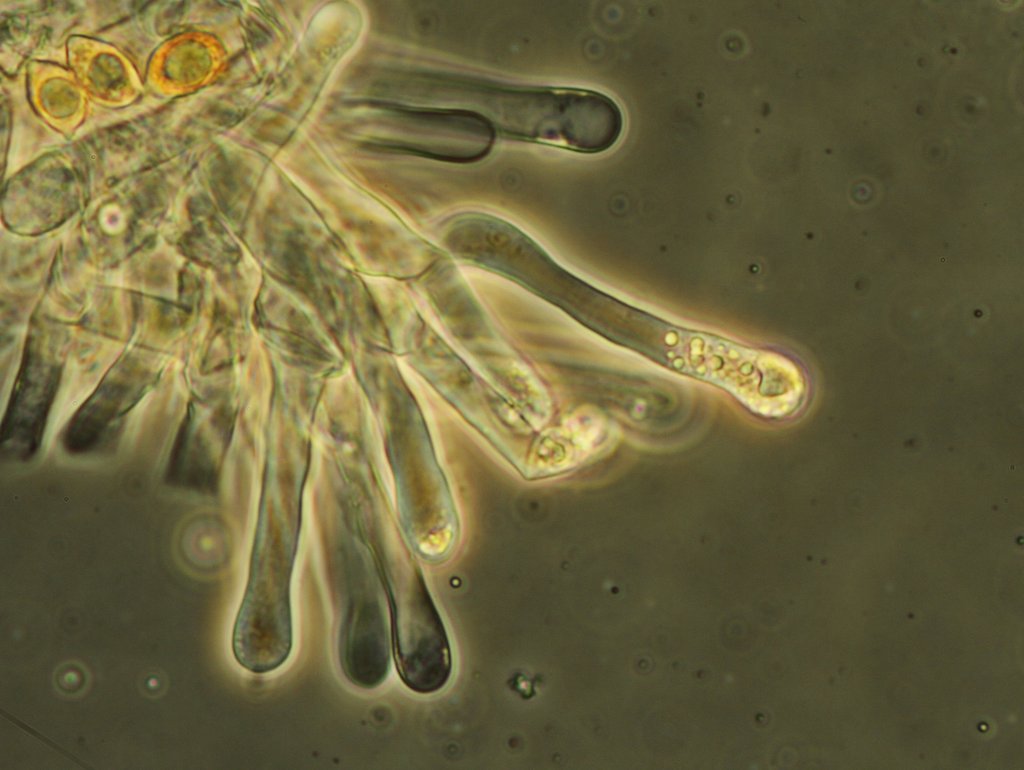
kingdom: Fungi
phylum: Basidiomycota
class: Agaricomycetes
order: Agaricales
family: Hymenogastraceae
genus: Hebeloma
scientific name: Hebeloma leucosarx
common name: højstokket tåreblad
